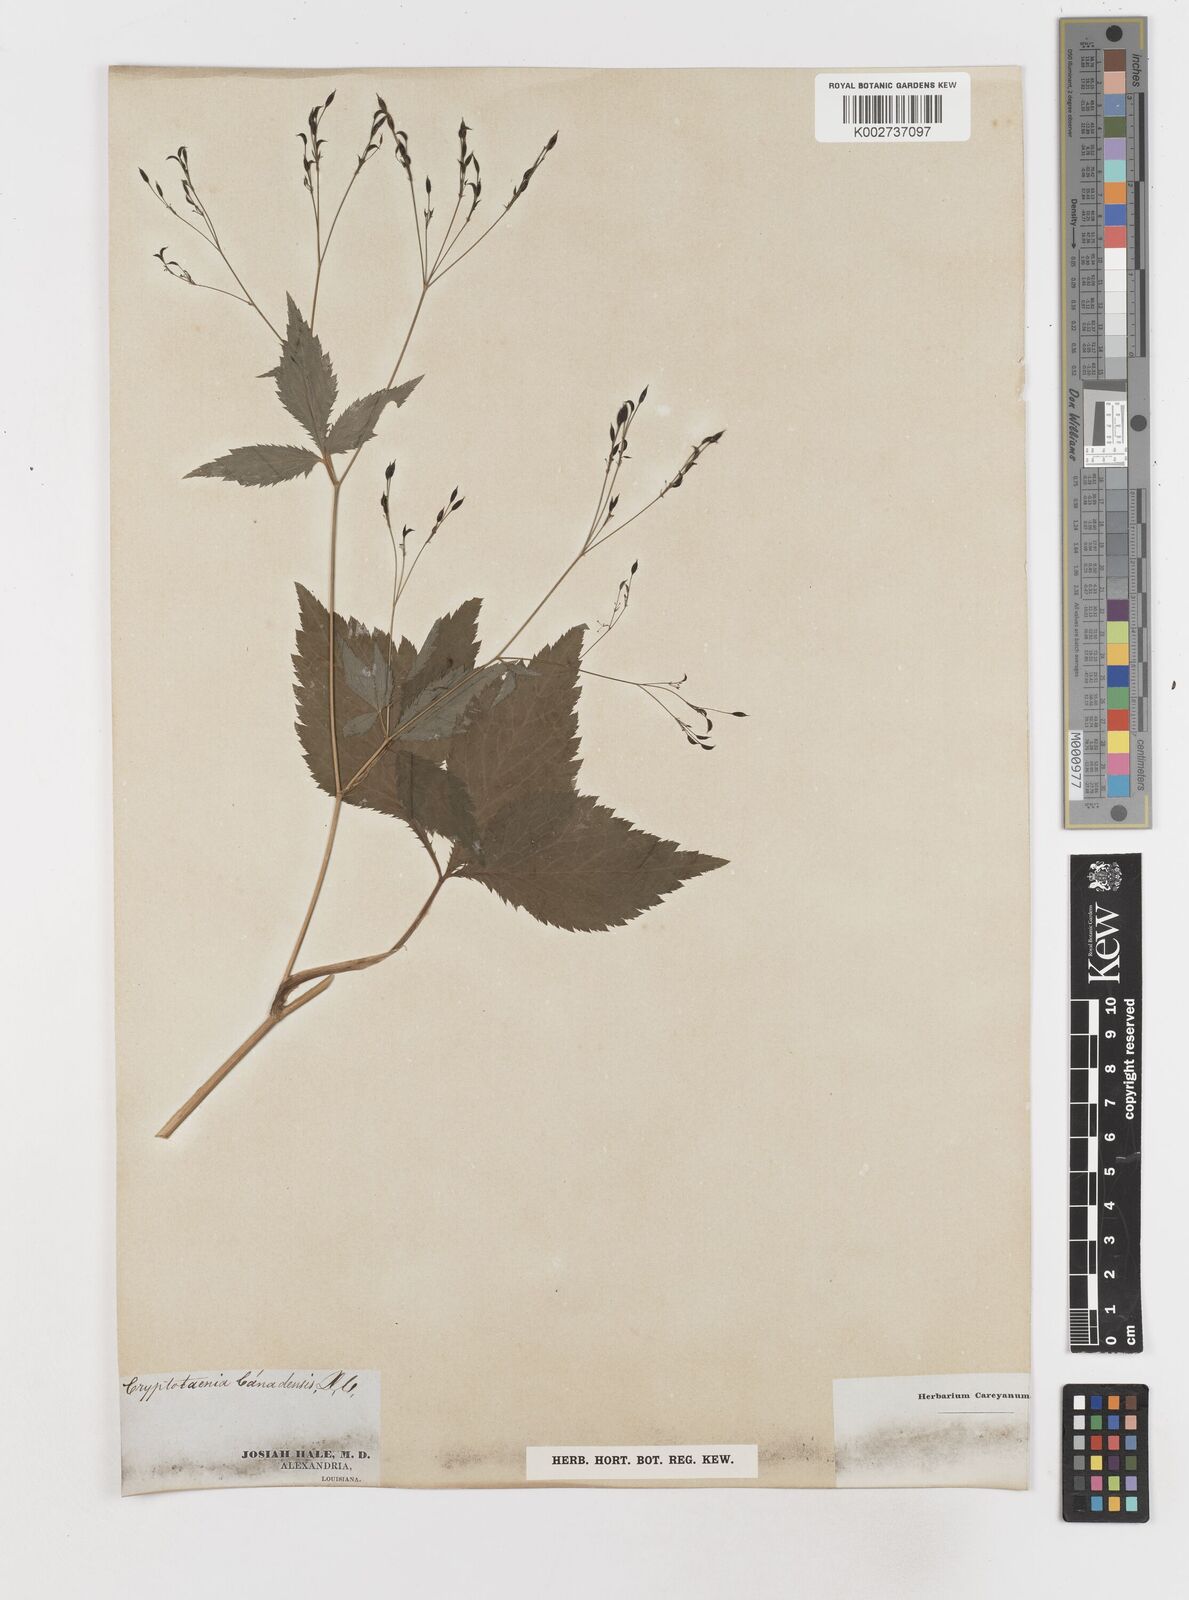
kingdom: Plantae
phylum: Tracheophyta
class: Magnoliopsida
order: Apiales
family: Apiaceae
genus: Cryptotaenia
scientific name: Cryptotaenia
